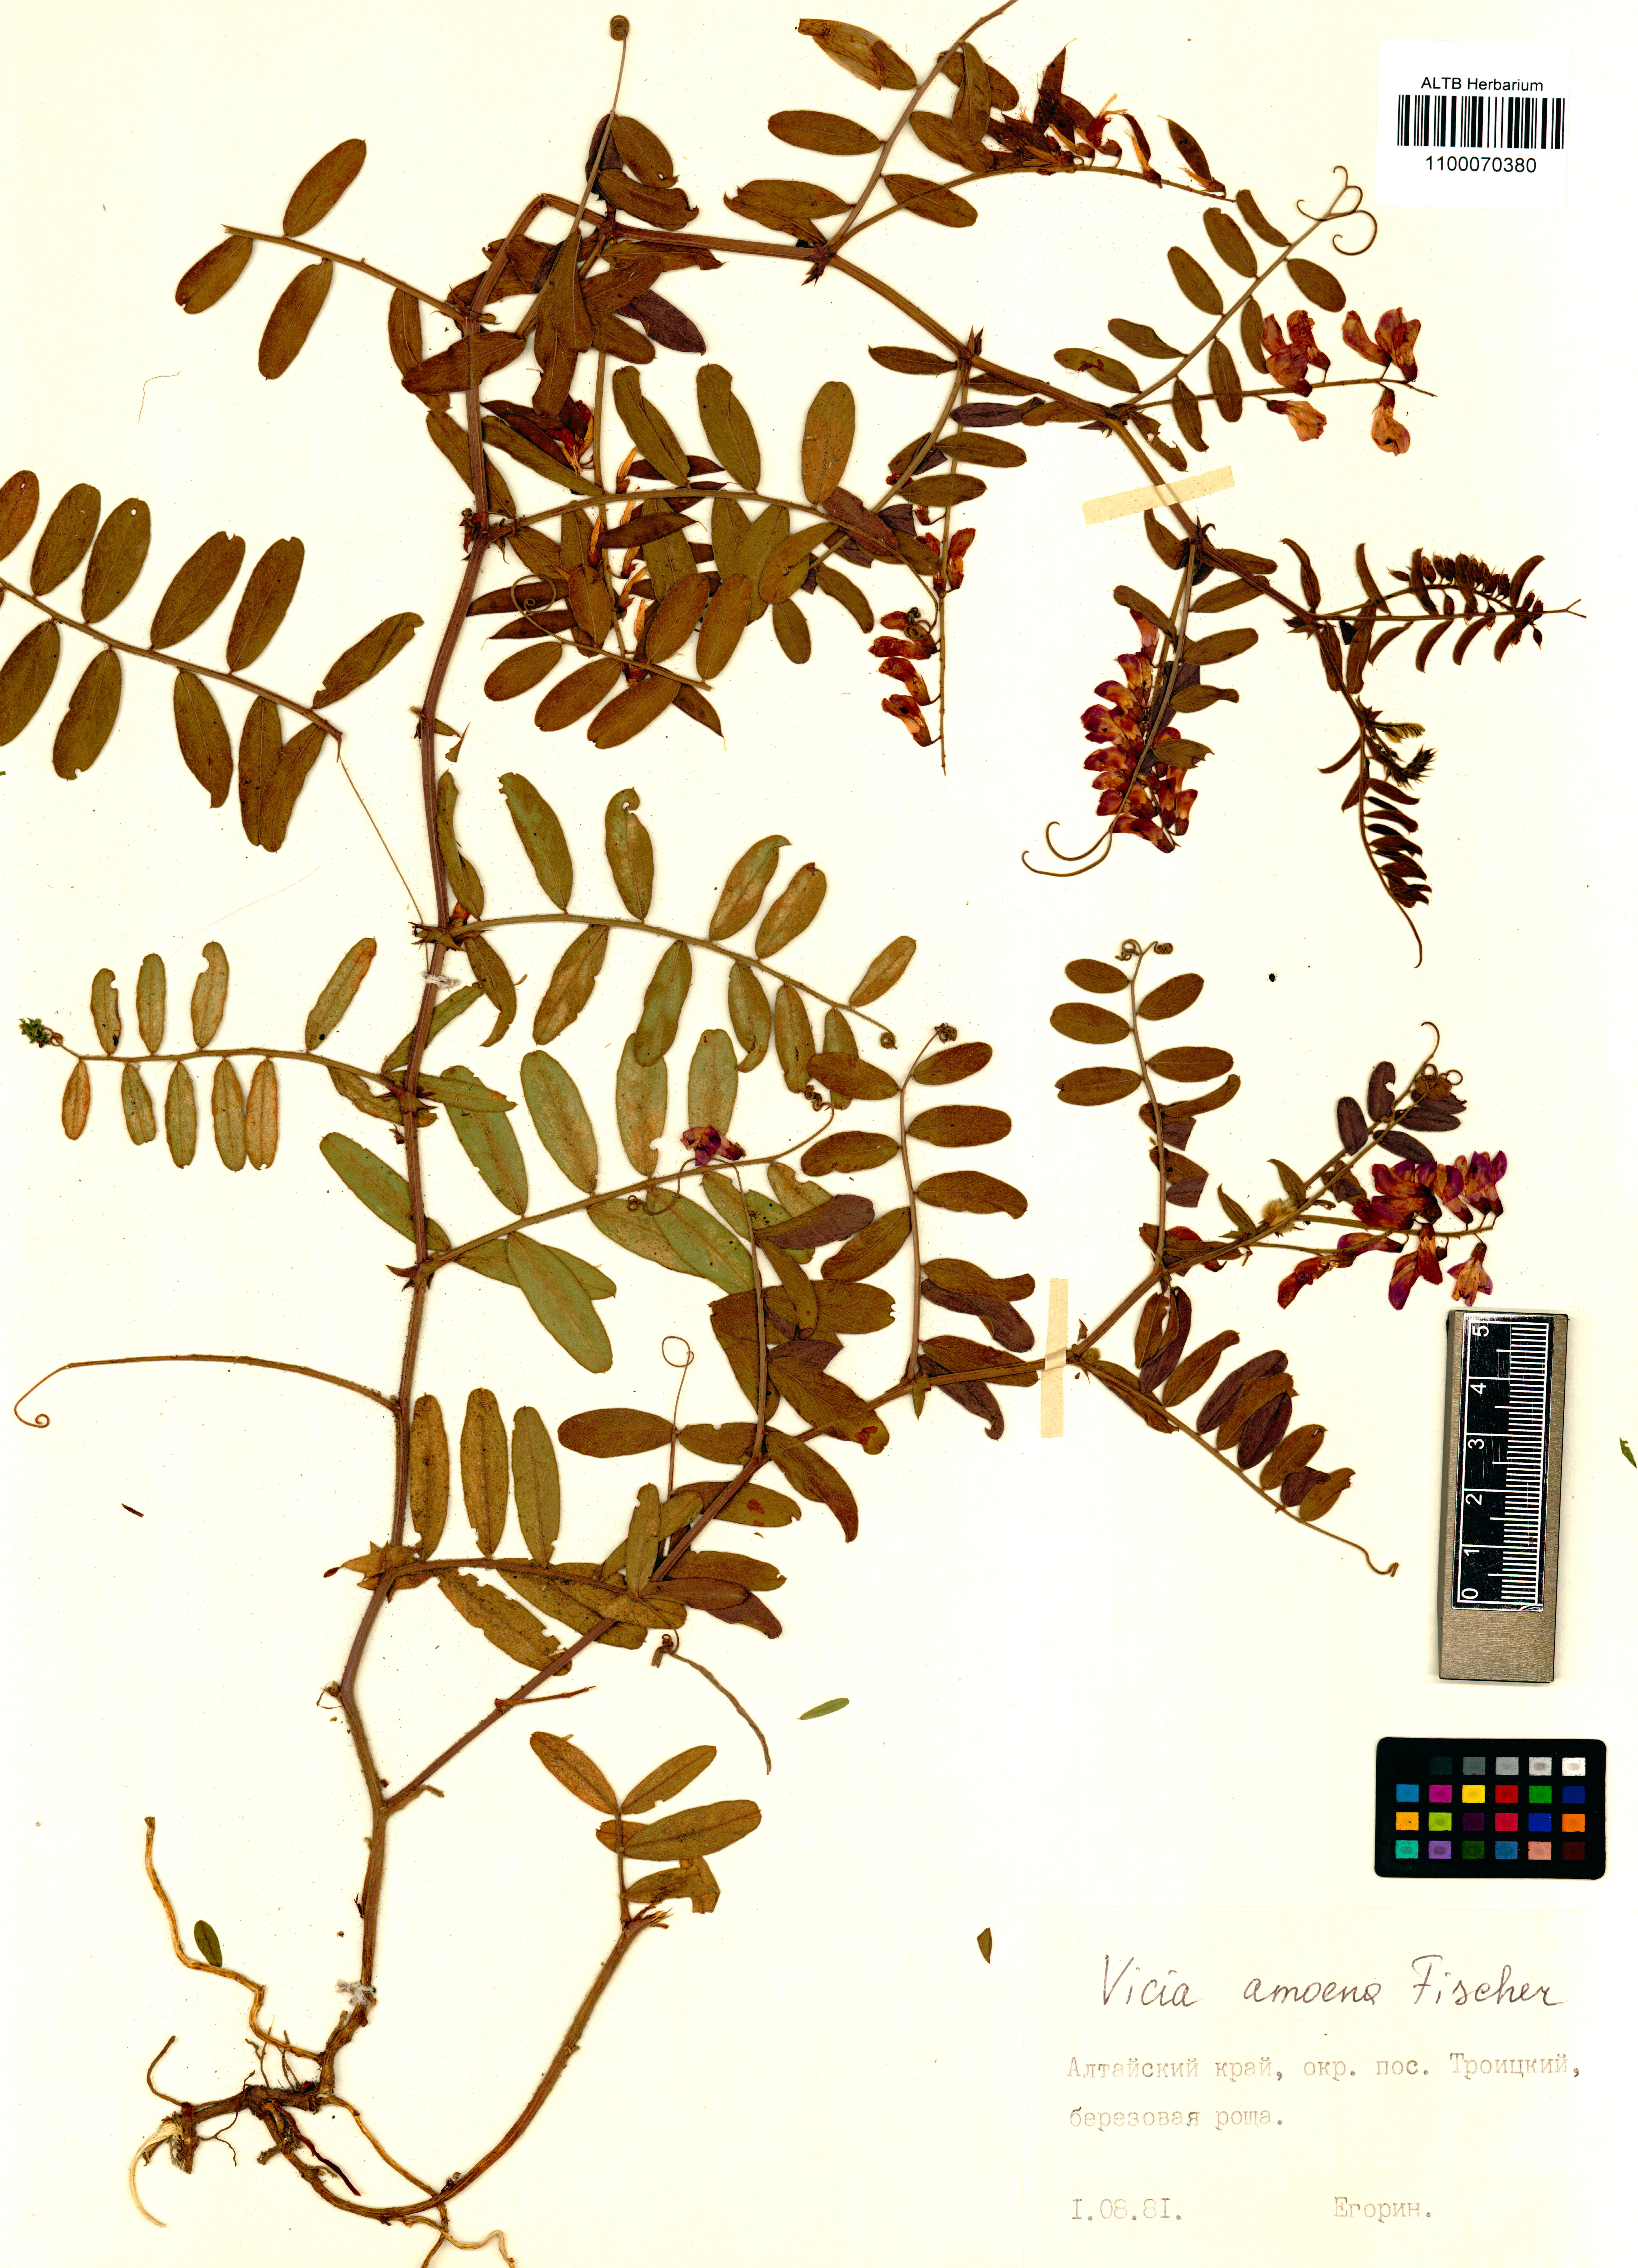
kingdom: Plantae
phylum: Tracheophyta
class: Magnoliopsida
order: Fabales
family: Fabaceae
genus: Vicia
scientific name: Vicia amoena
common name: Cheder ebs
